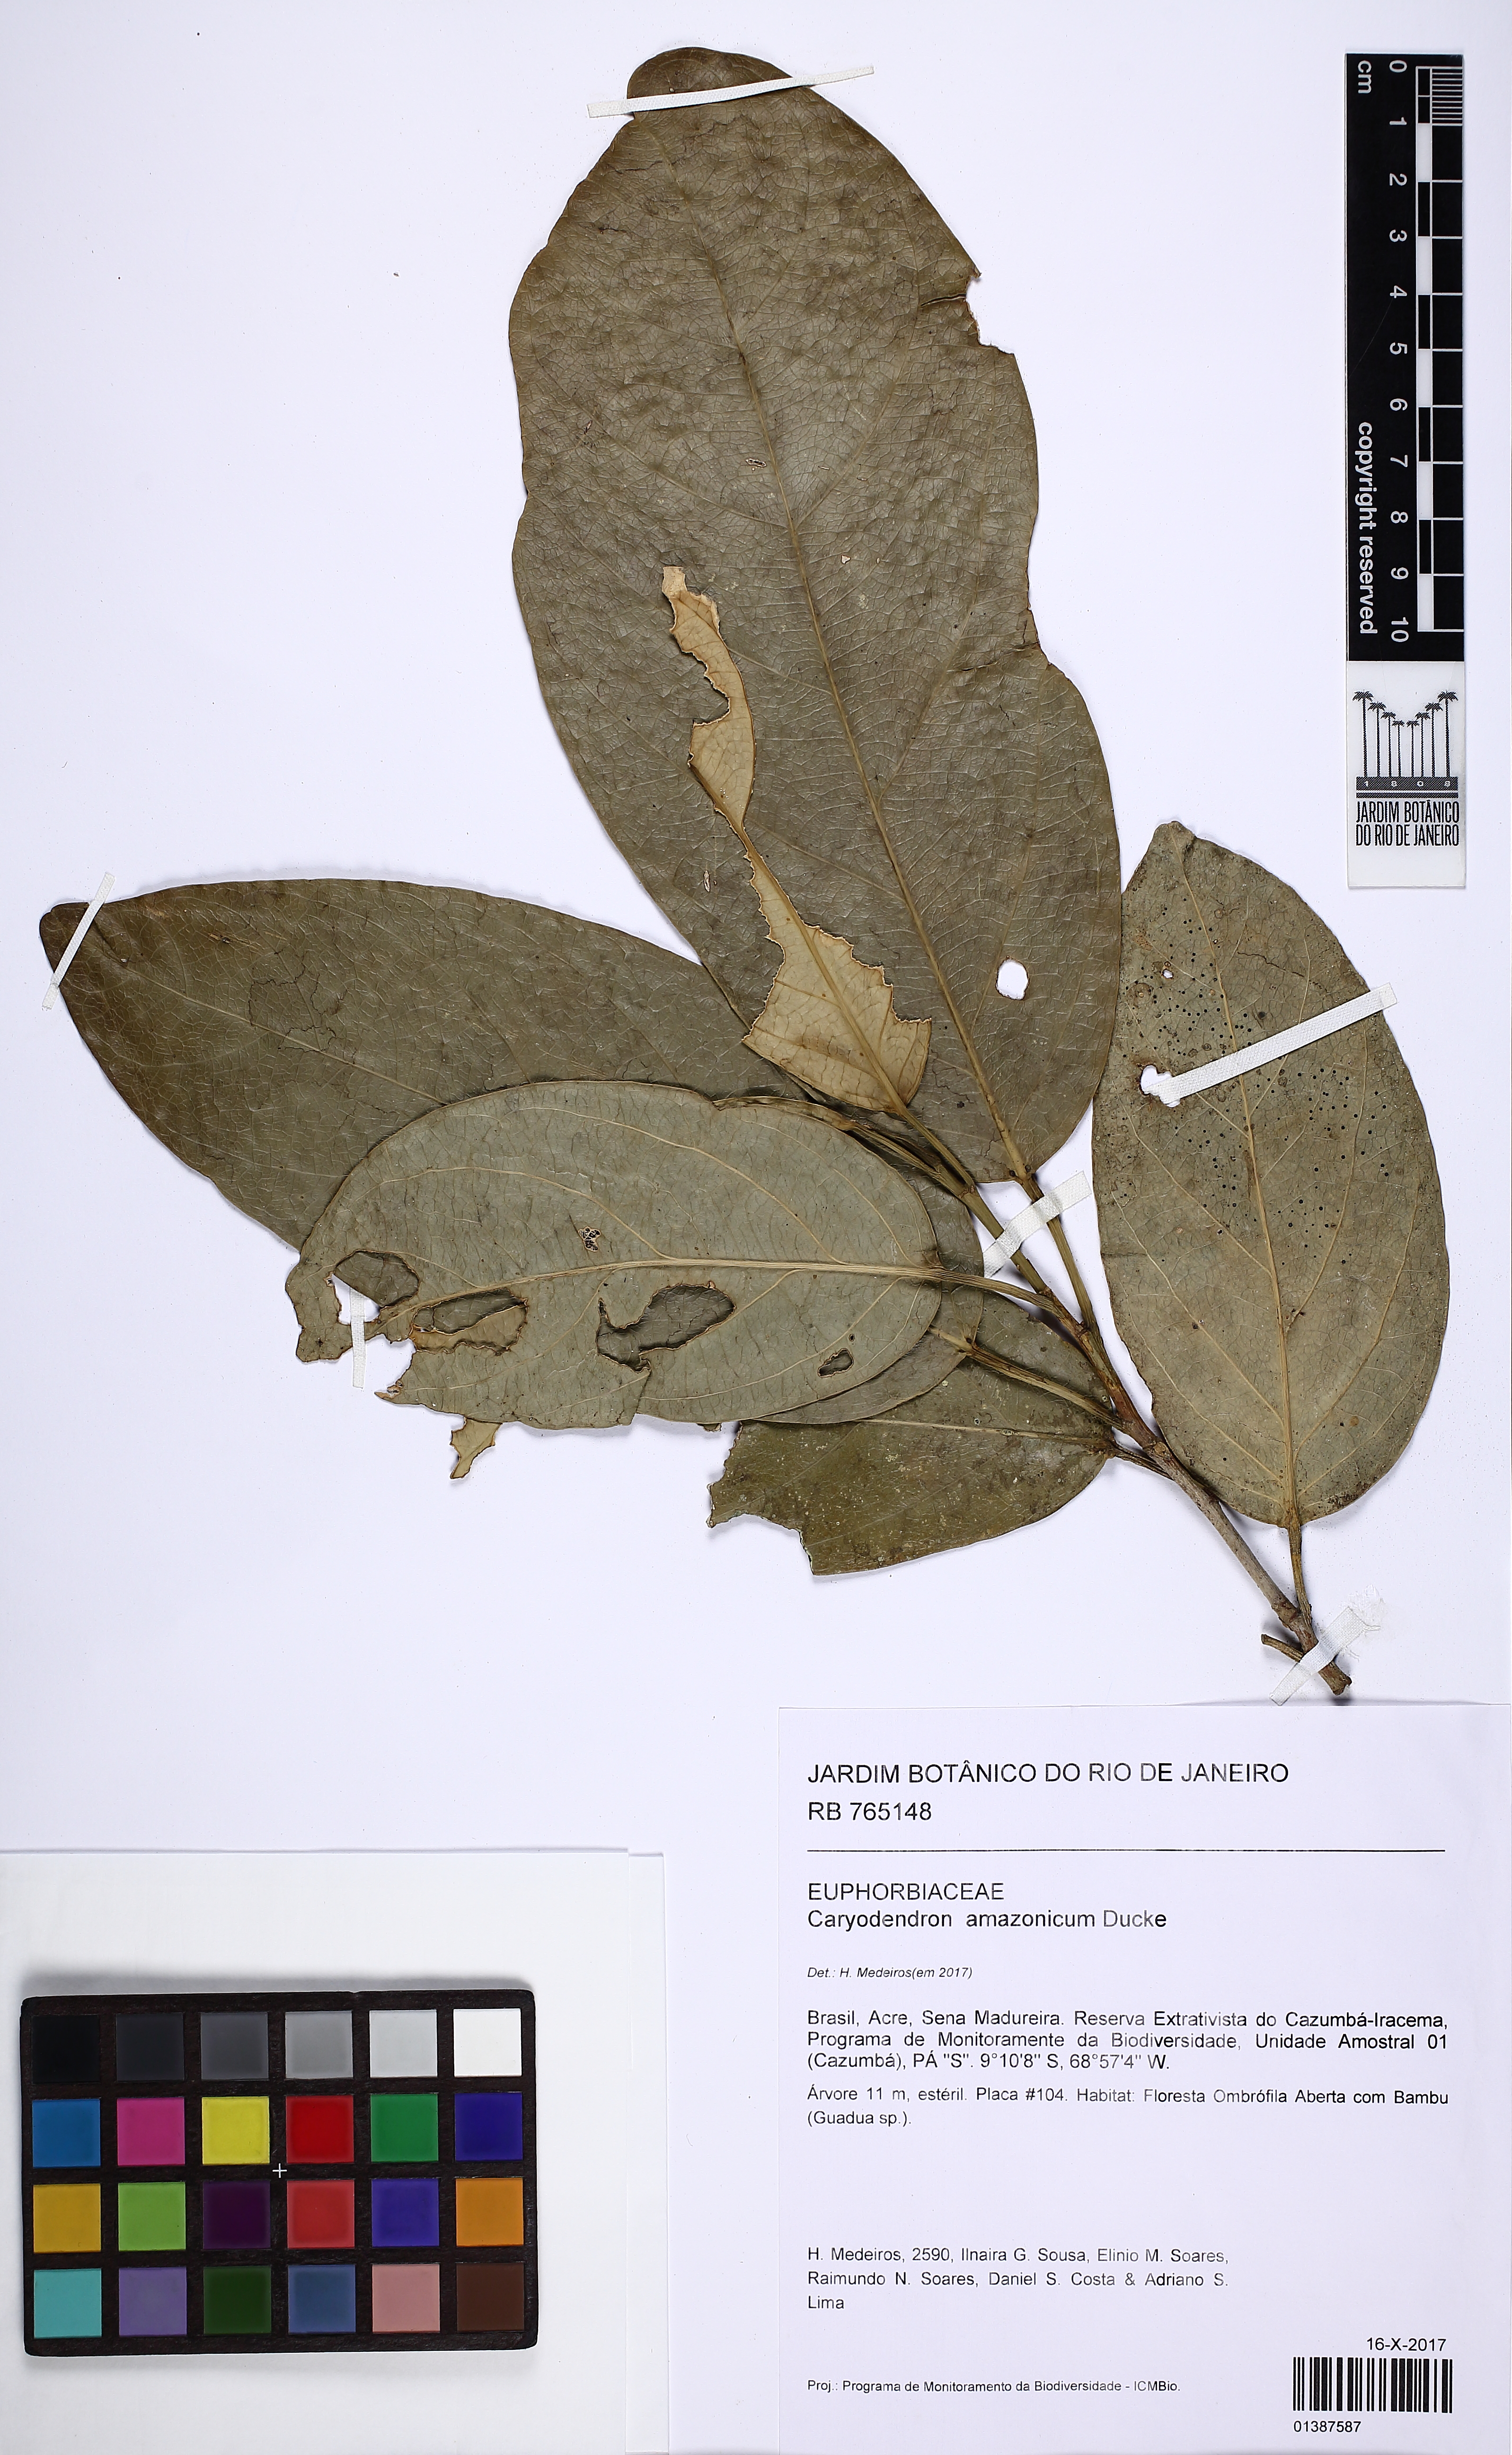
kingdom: Plantae
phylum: Tracheophyta
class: Magnoliopsida
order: Malpighiales
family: Euphorbiaceae
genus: Caryodendron
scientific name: Caryodendron amazonicum
